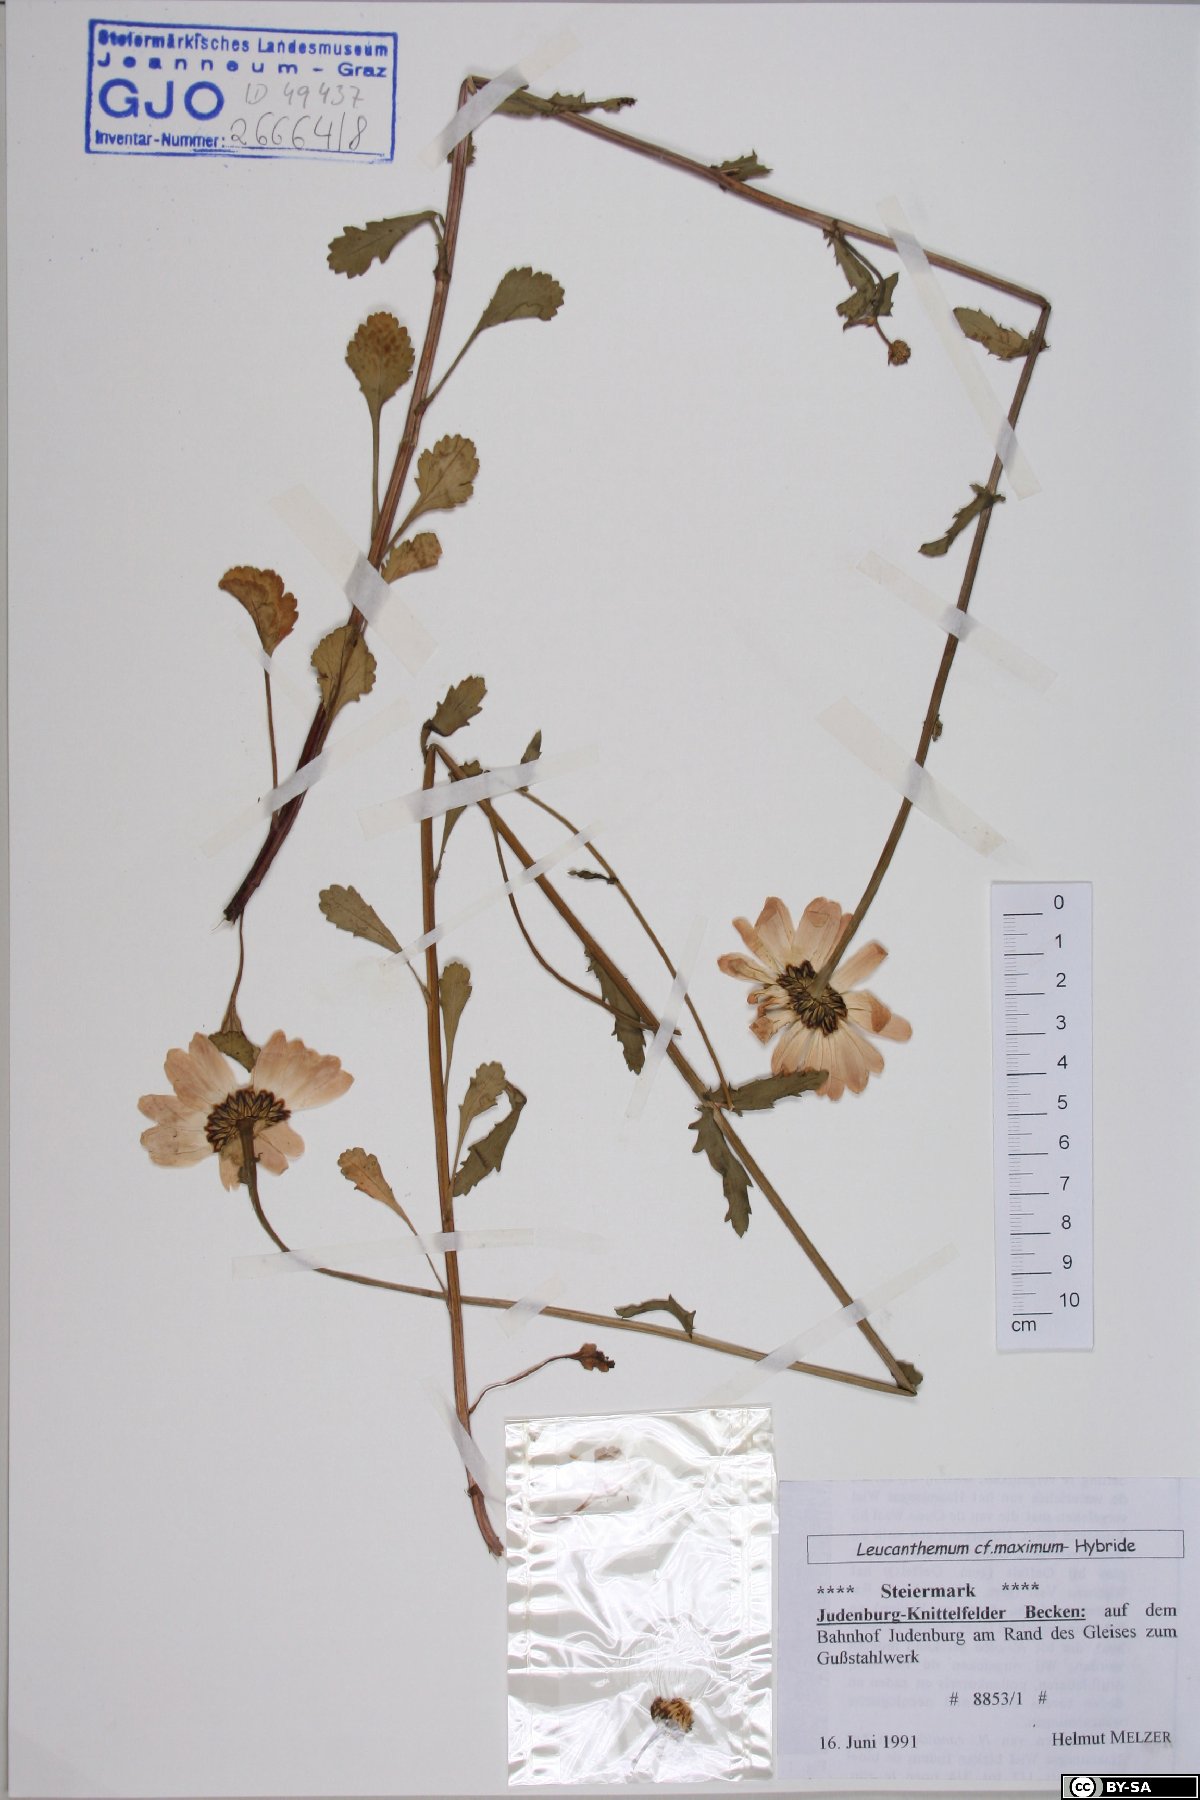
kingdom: Plantae
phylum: Tracheophyta
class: Magnoliopsida
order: Caryophyllales
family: Caryophyllaceae
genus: Sabulina
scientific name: Sabulina glaucina
